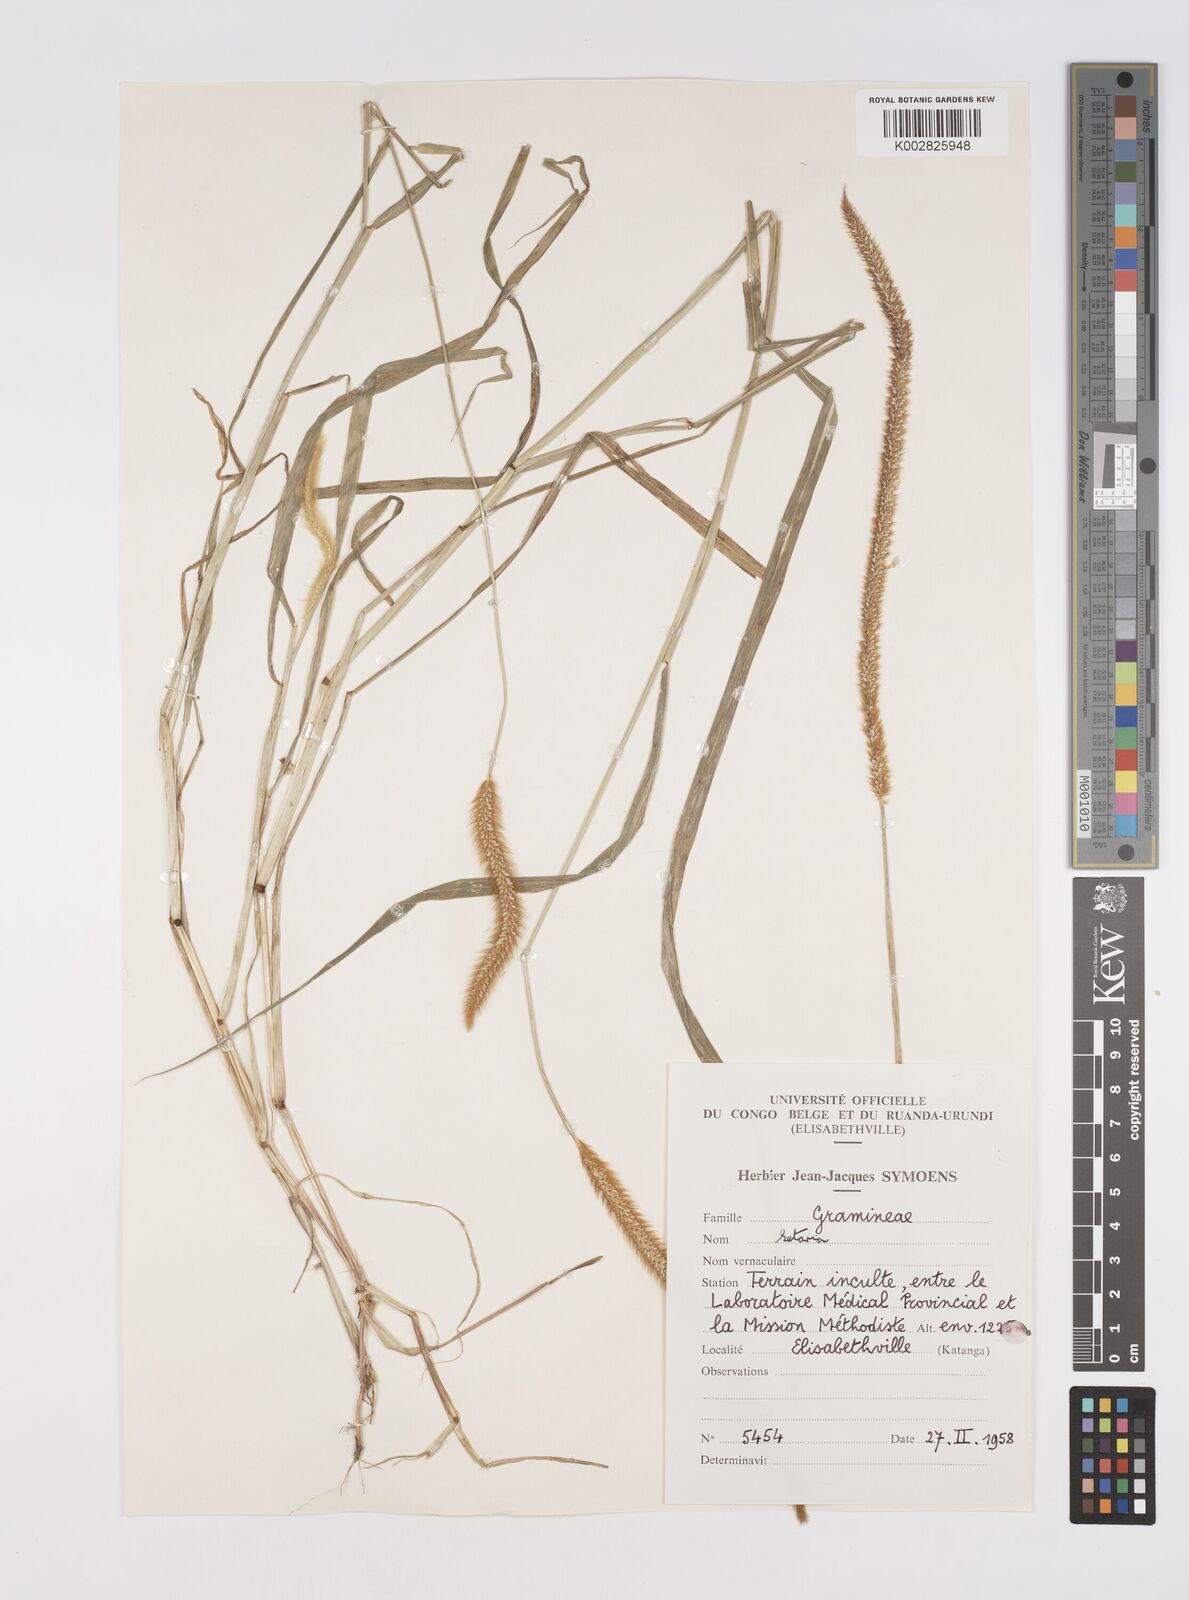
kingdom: Plantae
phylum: Tracheophyta
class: Liliopsida
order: Poales
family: Poaceae
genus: Setaria
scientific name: Setaria pumila
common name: Yellow bristle-grass
